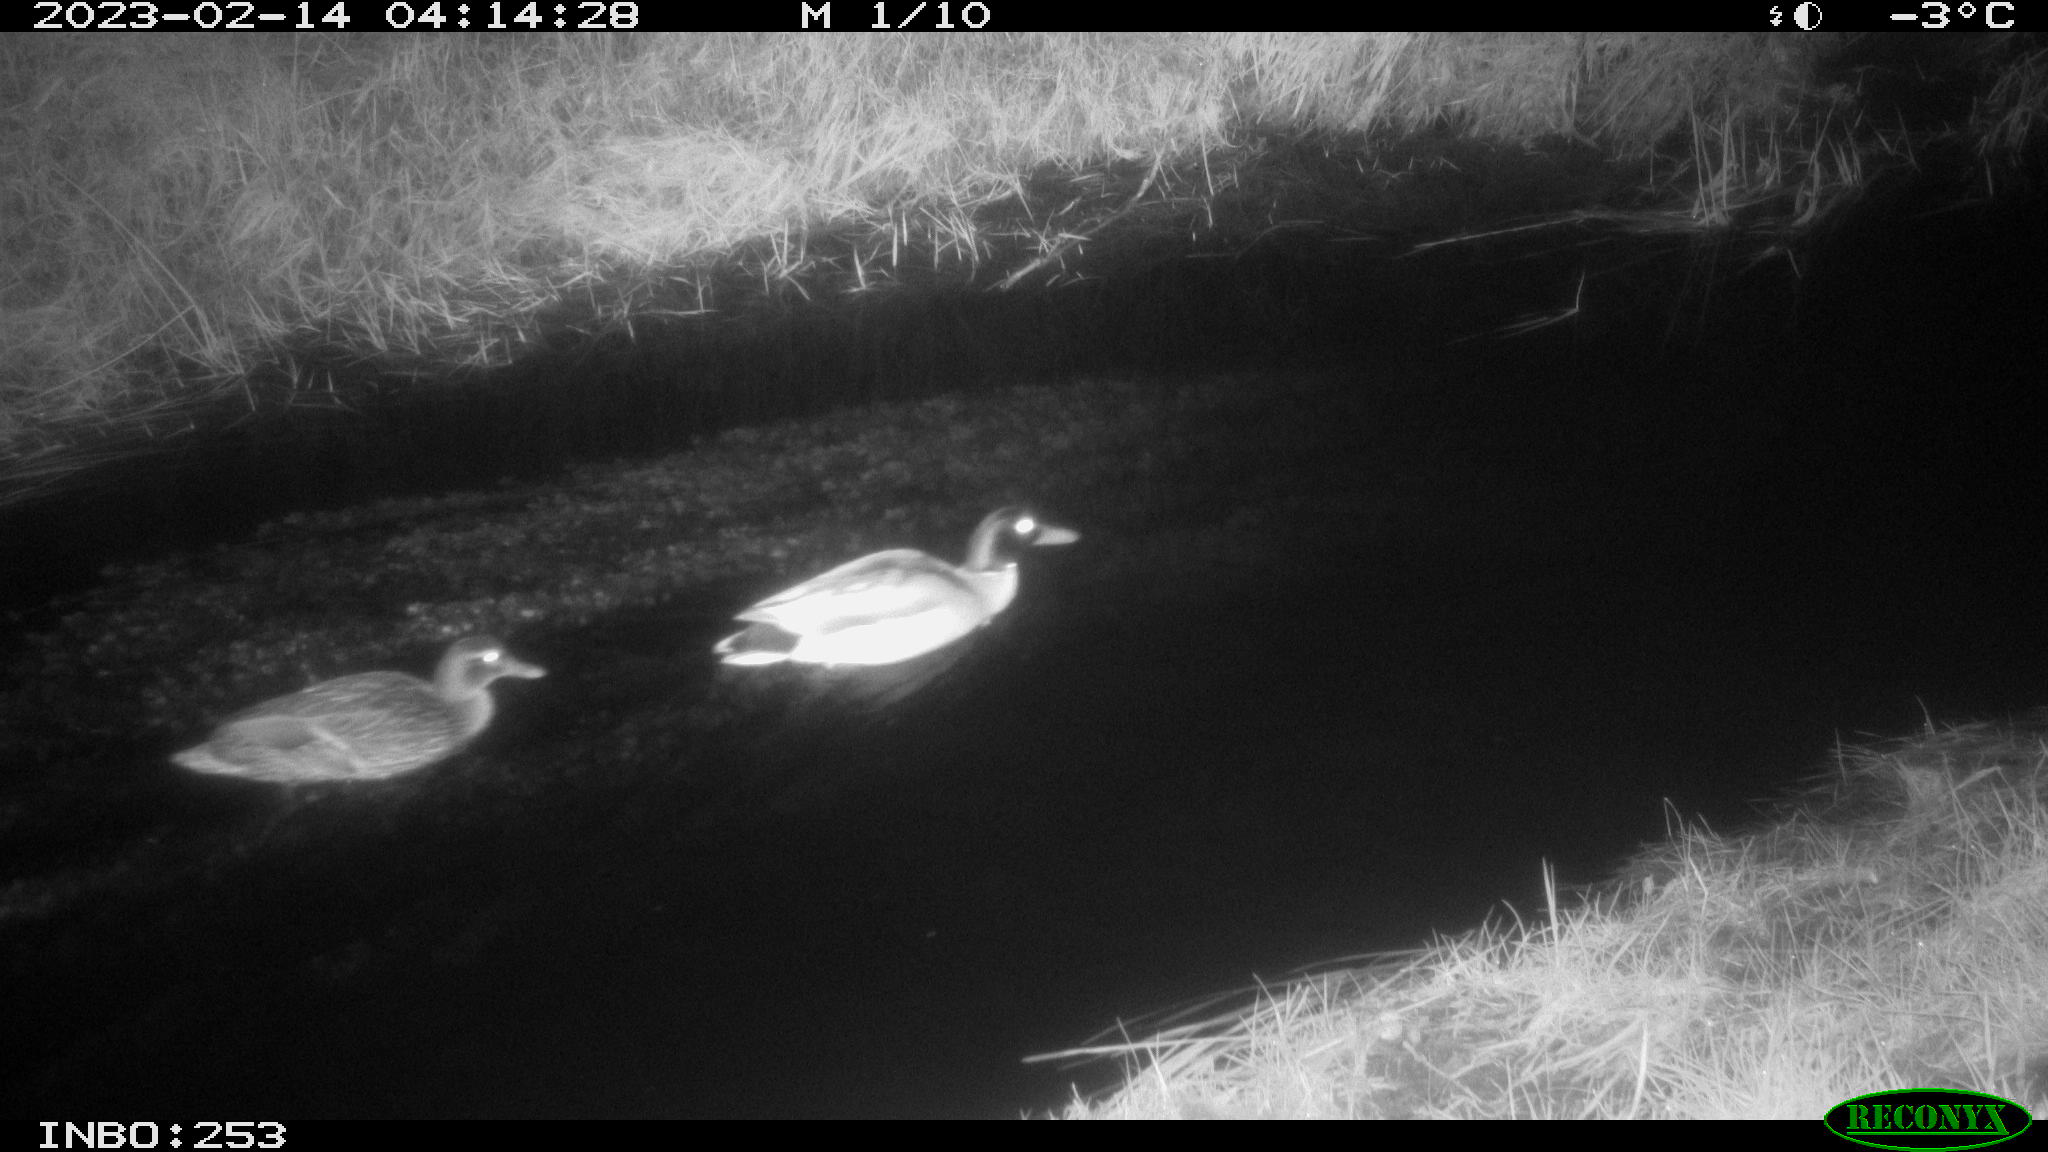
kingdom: Animalia
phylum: Chordata
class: Aves
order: Anseriformes
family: Anatidae
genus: Anas
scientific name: Anas
